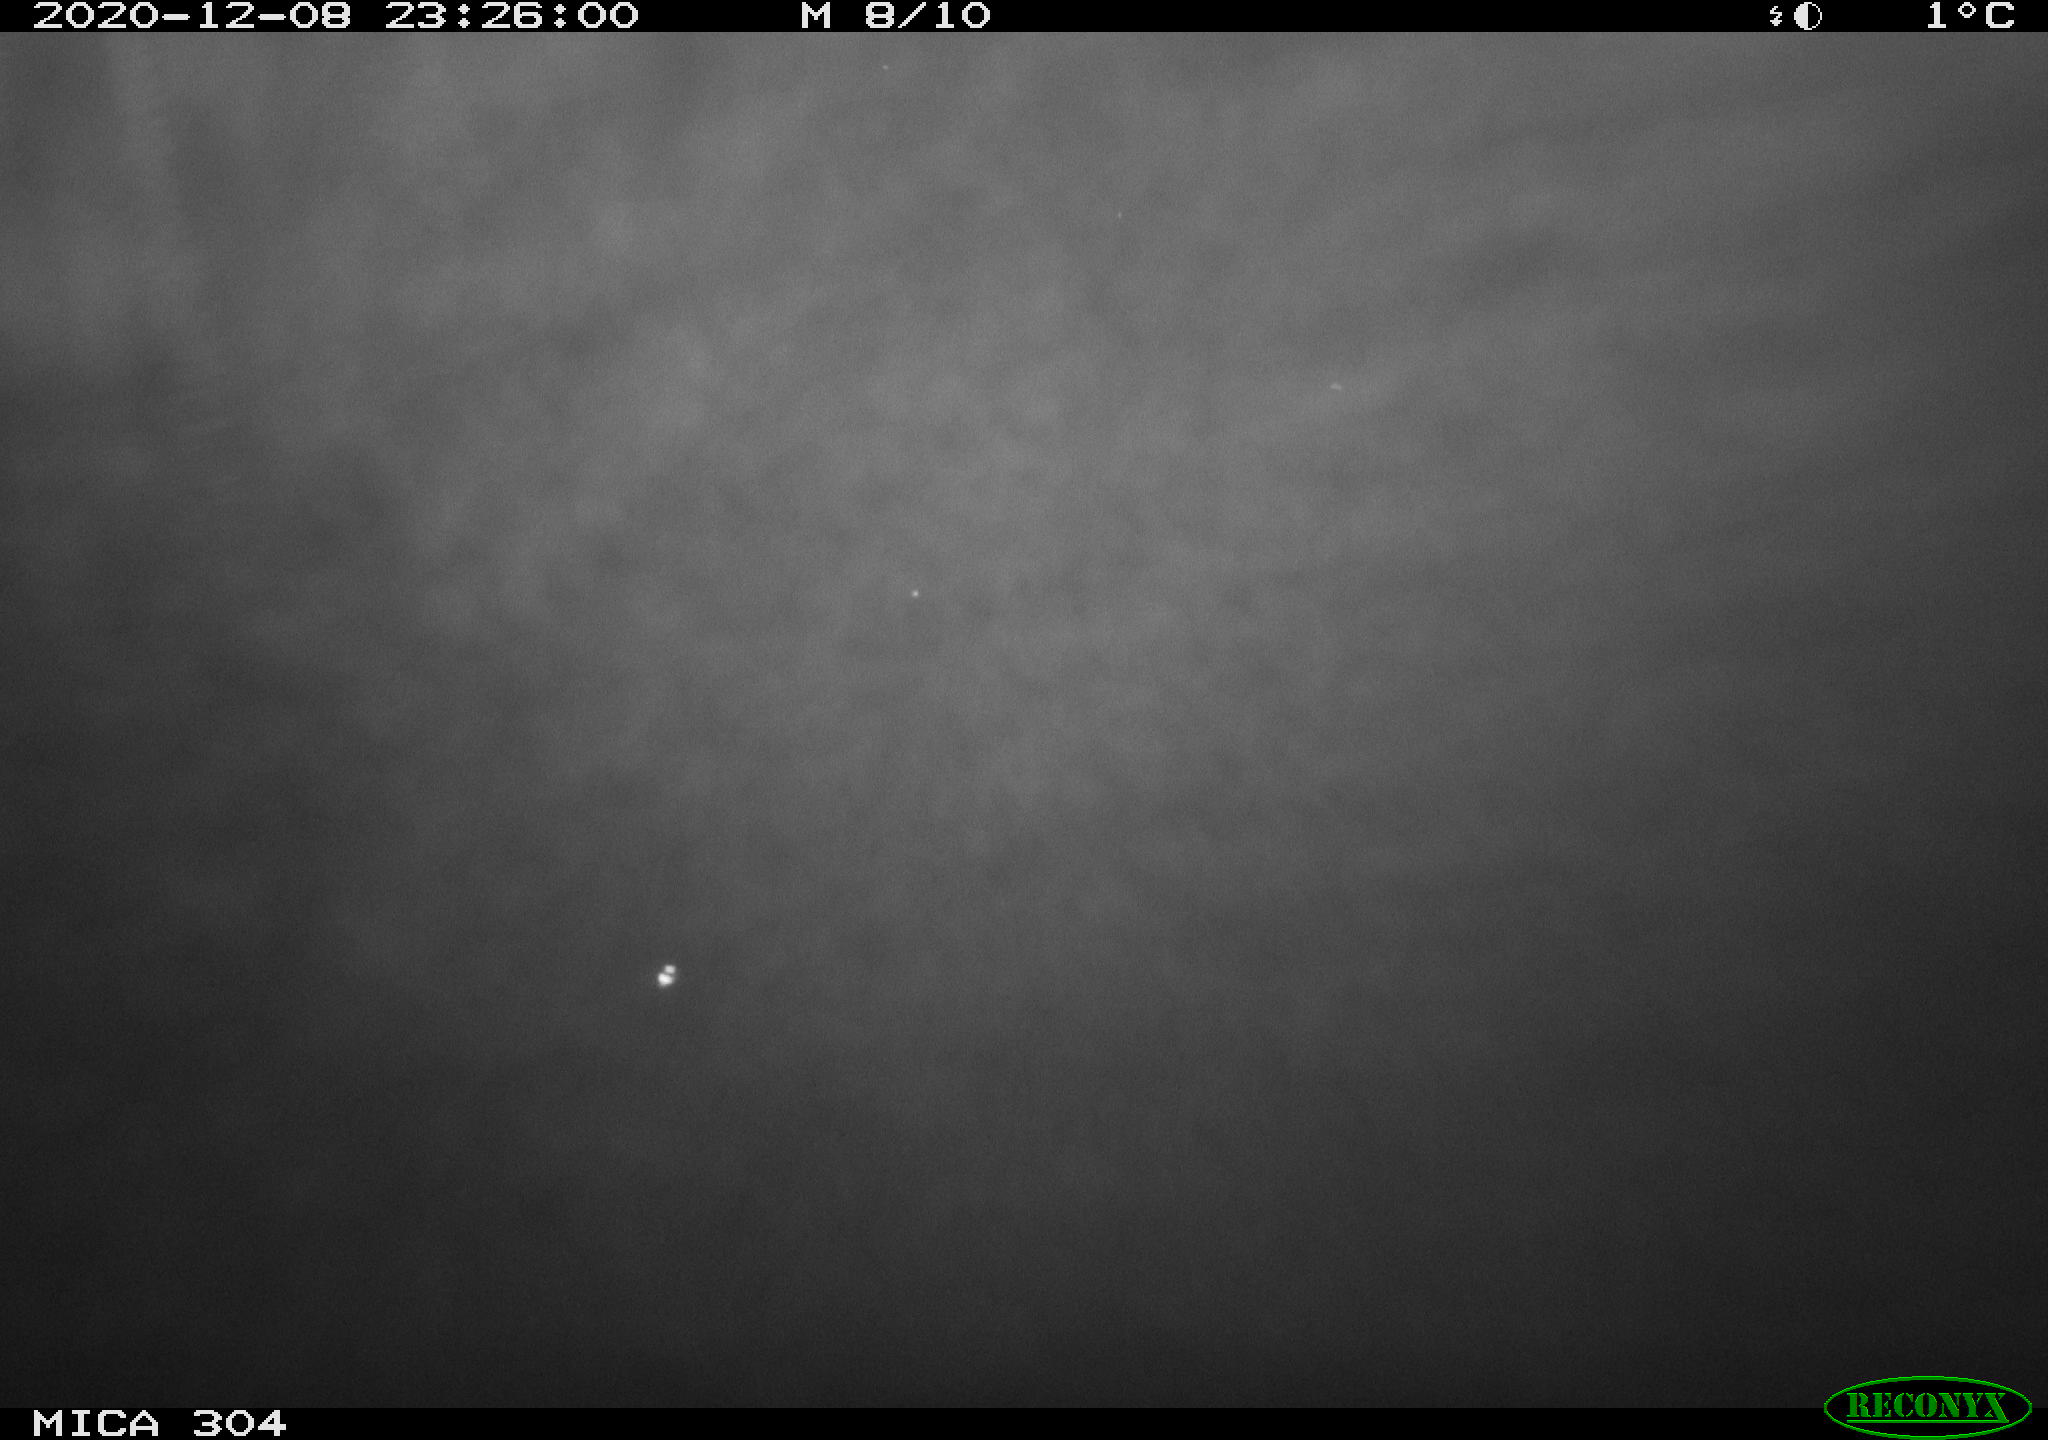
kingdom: Animalia
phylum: Chordata
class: Mammalia
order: Rodentia
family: Muridae
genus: Rattus
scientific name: Rattus norvegicus
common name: Brown rat
